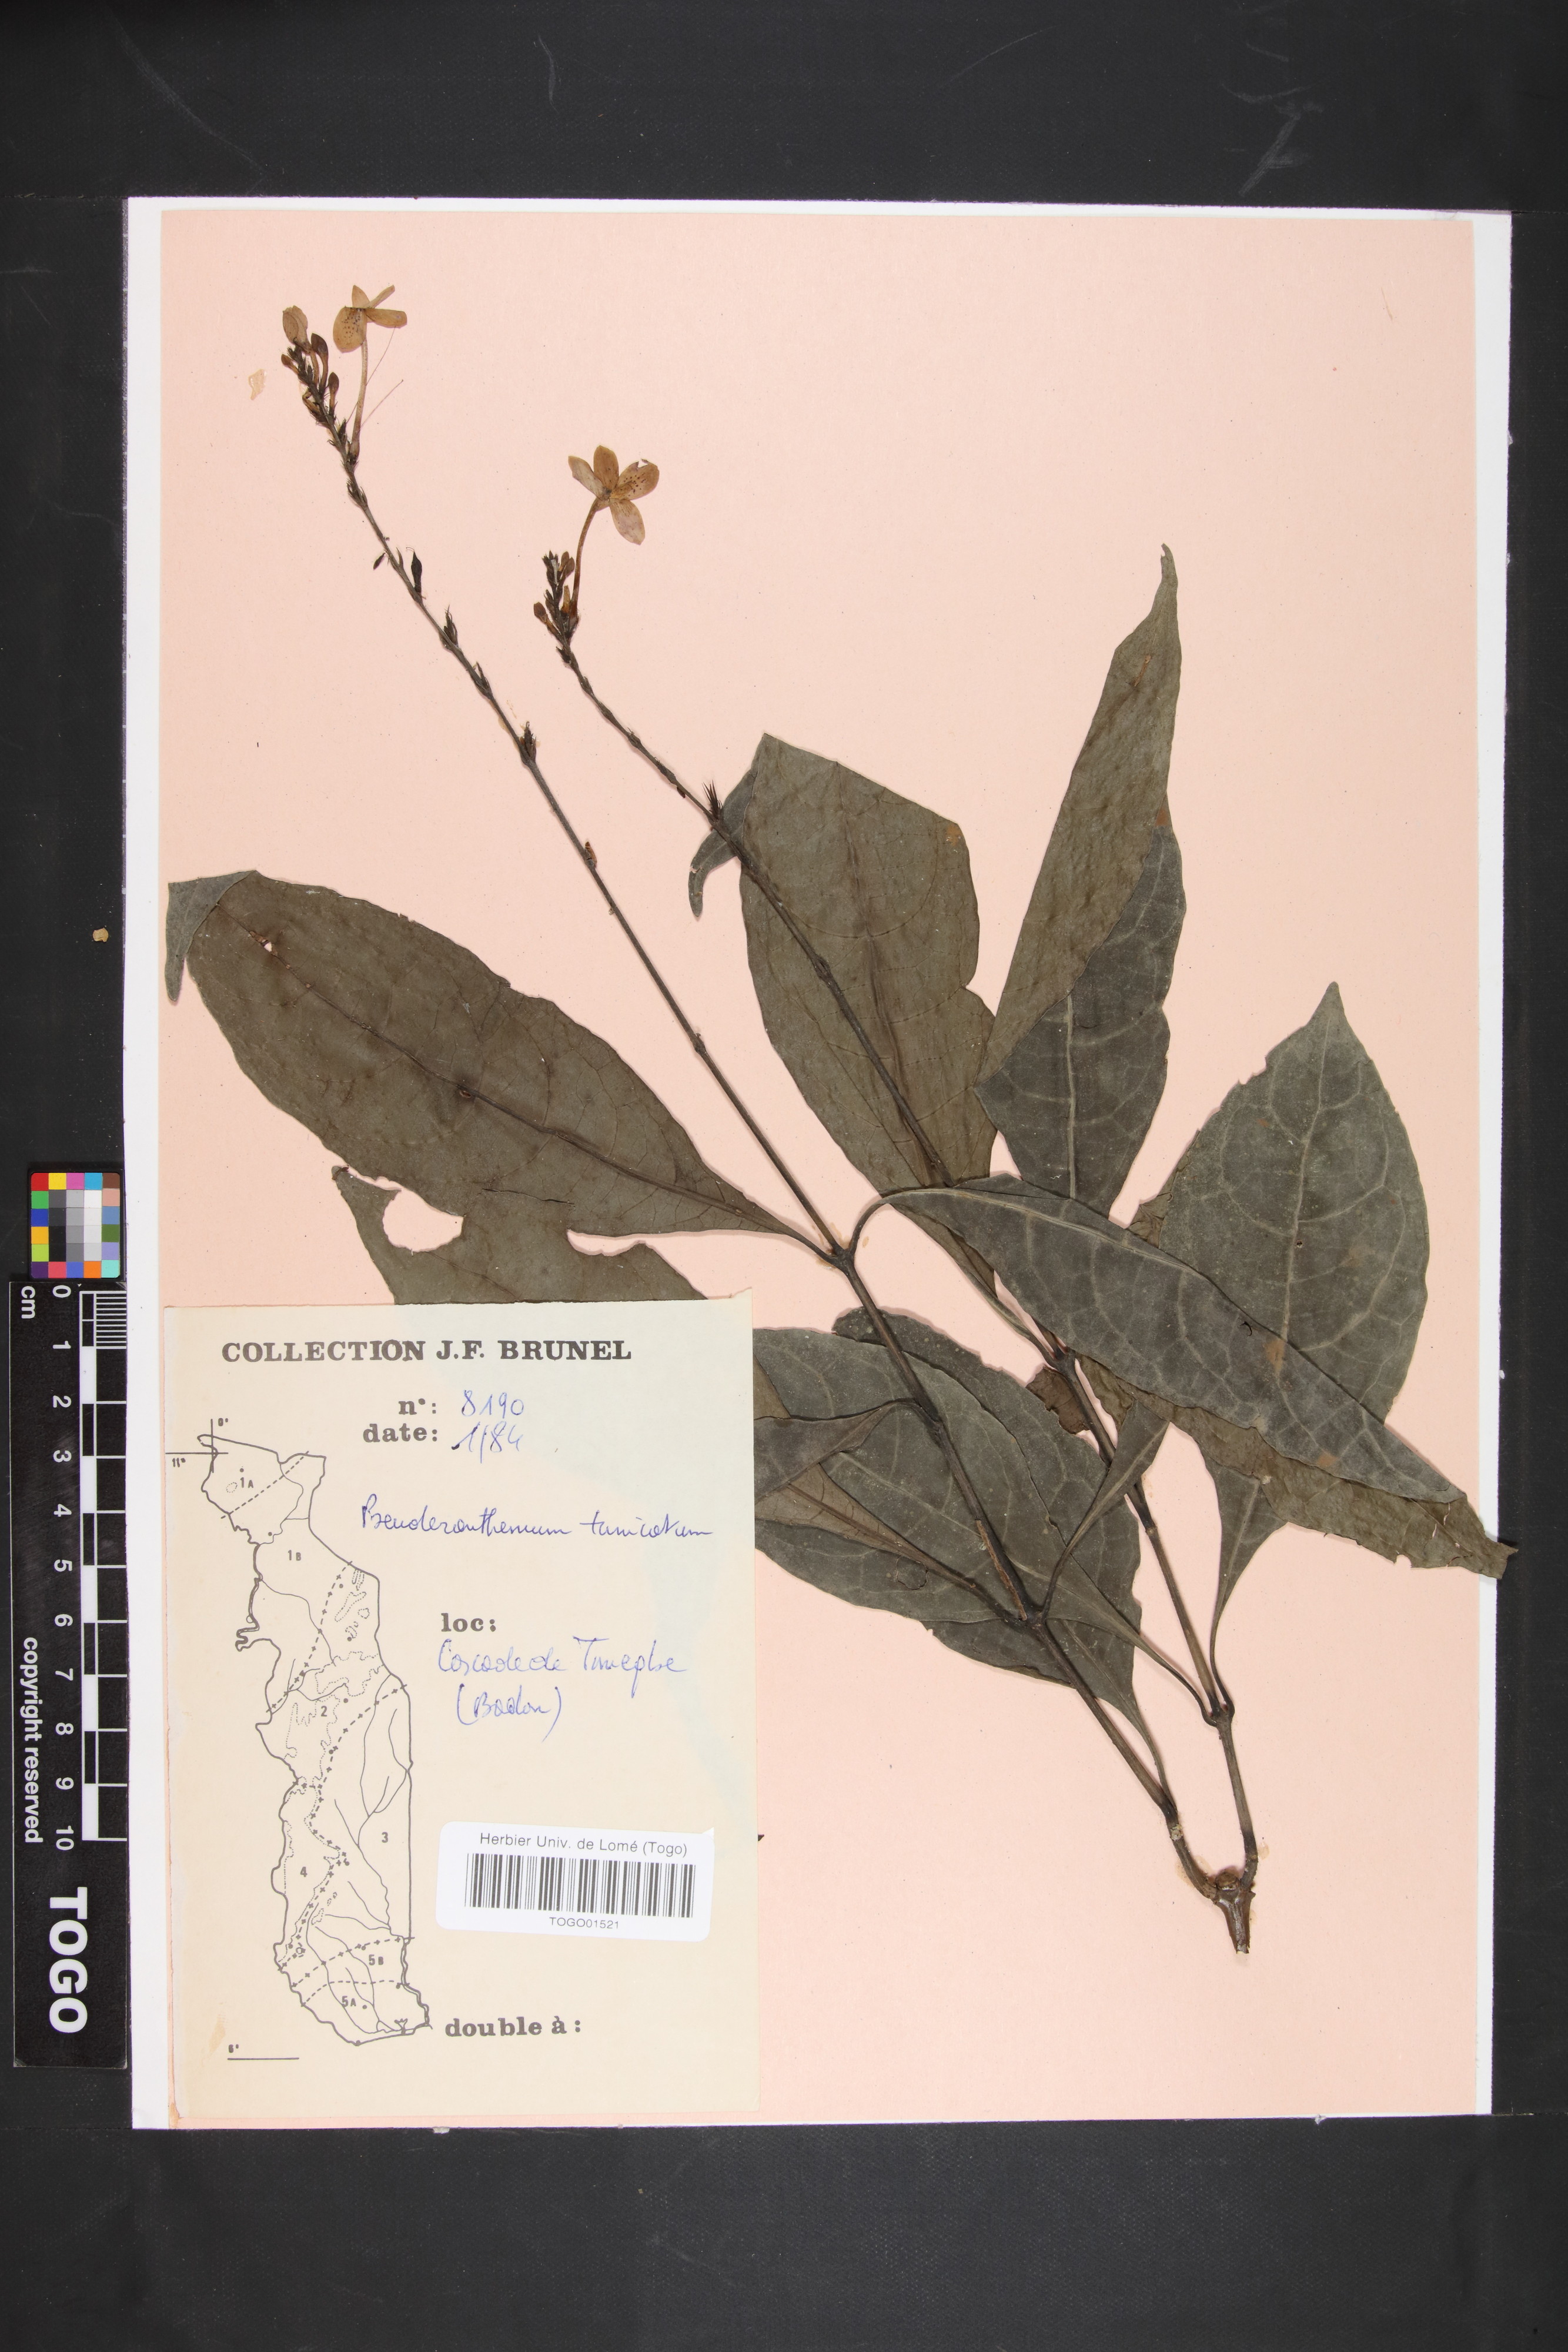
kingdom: Plantae
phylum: Tracheophyta
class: Magnoliopsida
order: Lamiales
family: Acanthaceae
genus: Pseuderanthemum
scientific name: Pseuderanthemum tunicatum
